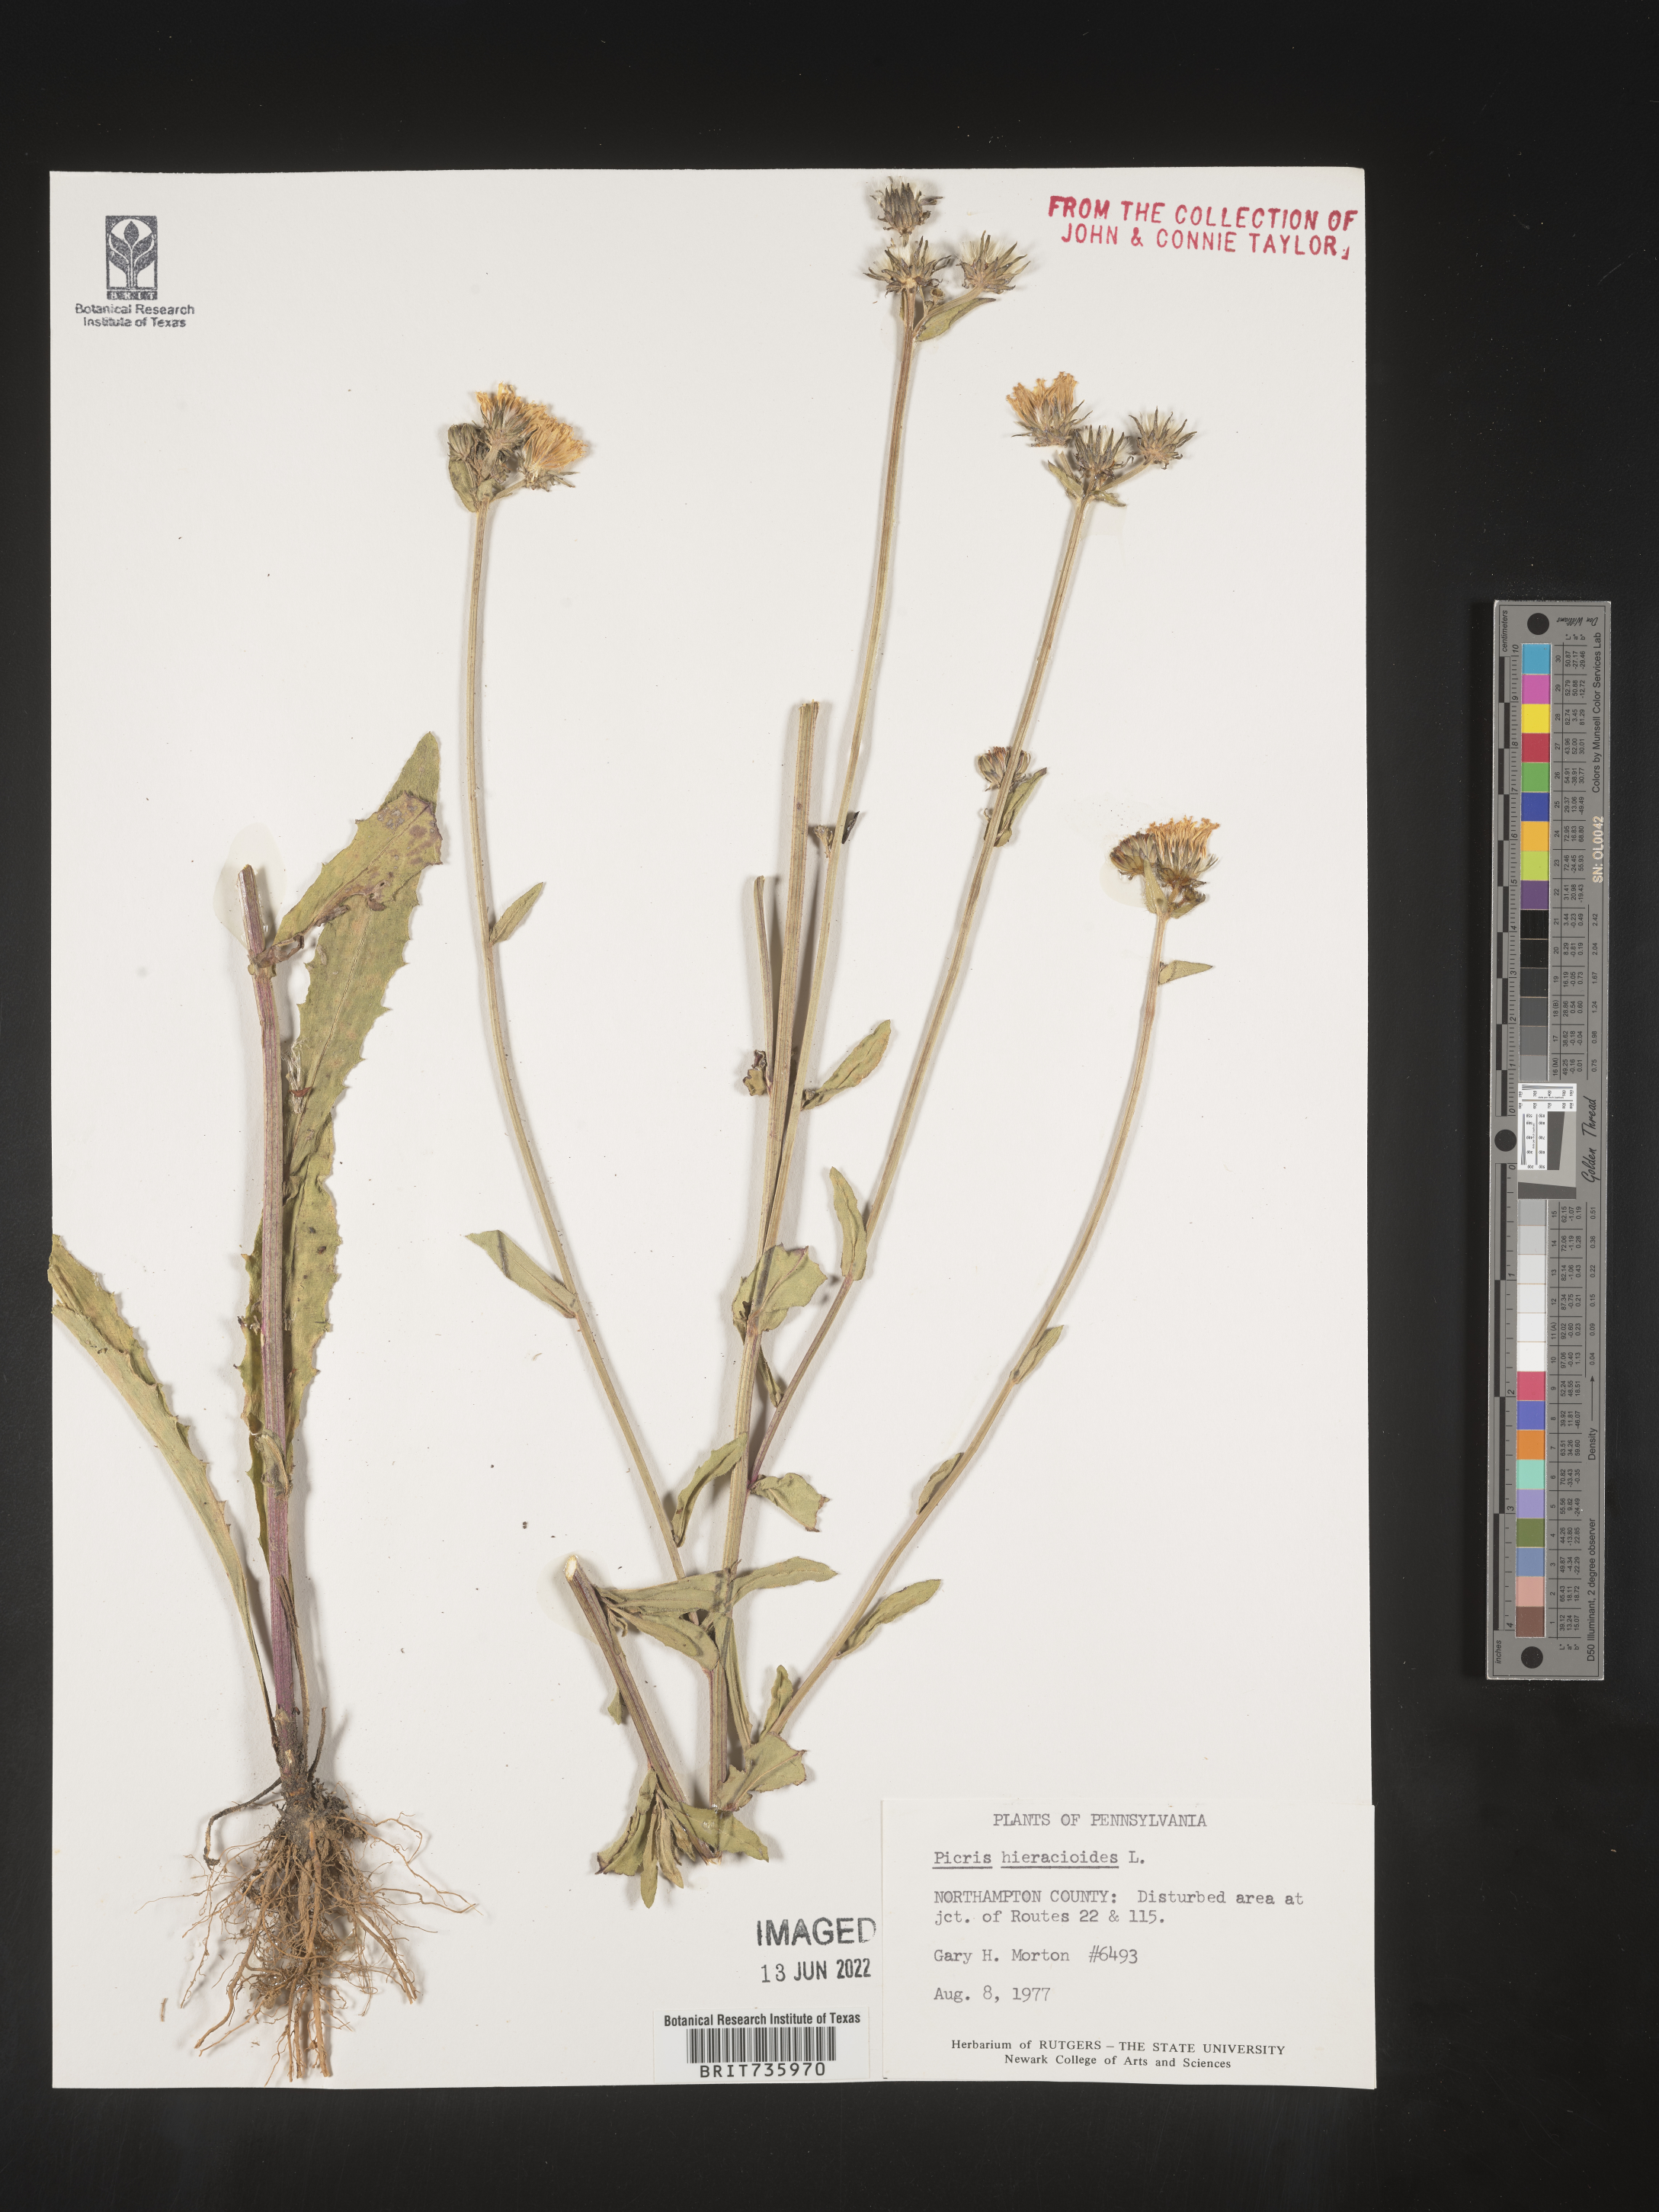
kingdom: Plantae
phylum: Tracheophyta
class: Magnoliopsida
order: Asterales
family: Asteraceae
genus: Picris
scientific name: Picris hieracioides
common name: Hawkweed oxtongue
